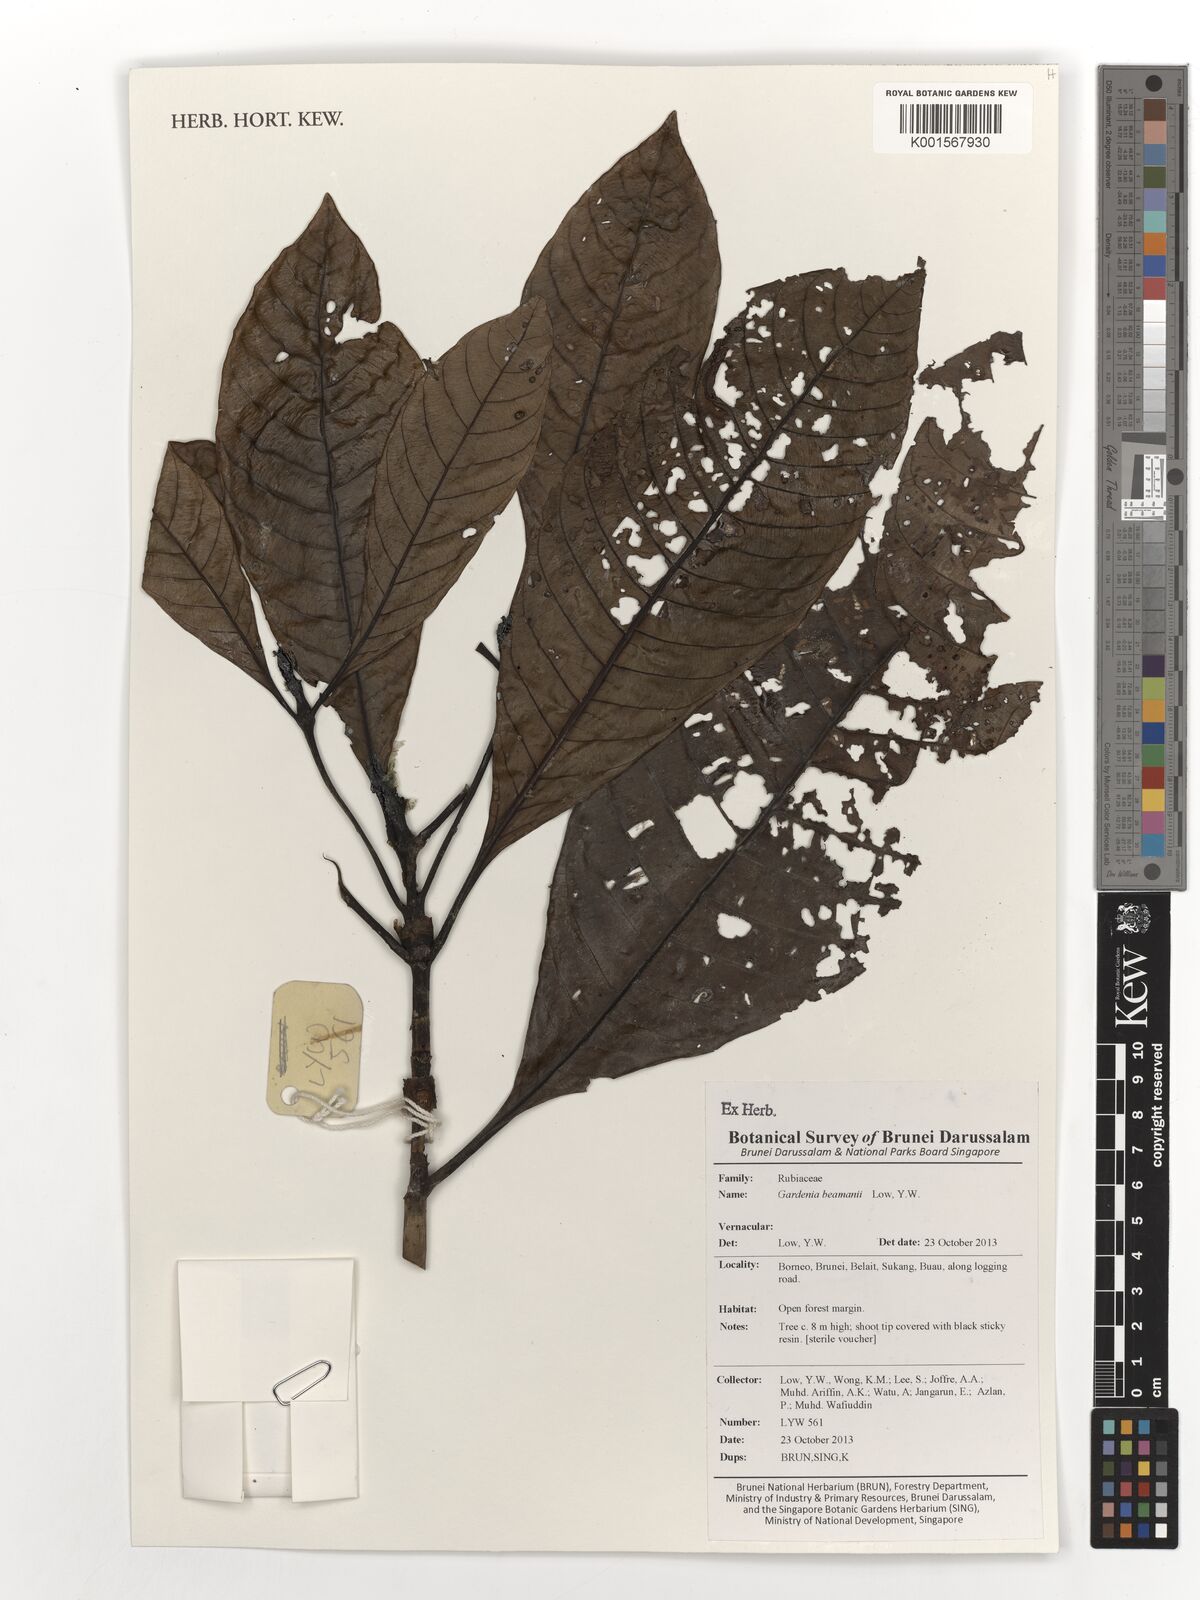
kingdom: Plantae
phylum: Tracheophyta
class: Magnoliopsida
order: Gentianales
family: Rubiaceae
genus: Gardenia
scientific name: Gardenia beamanii
